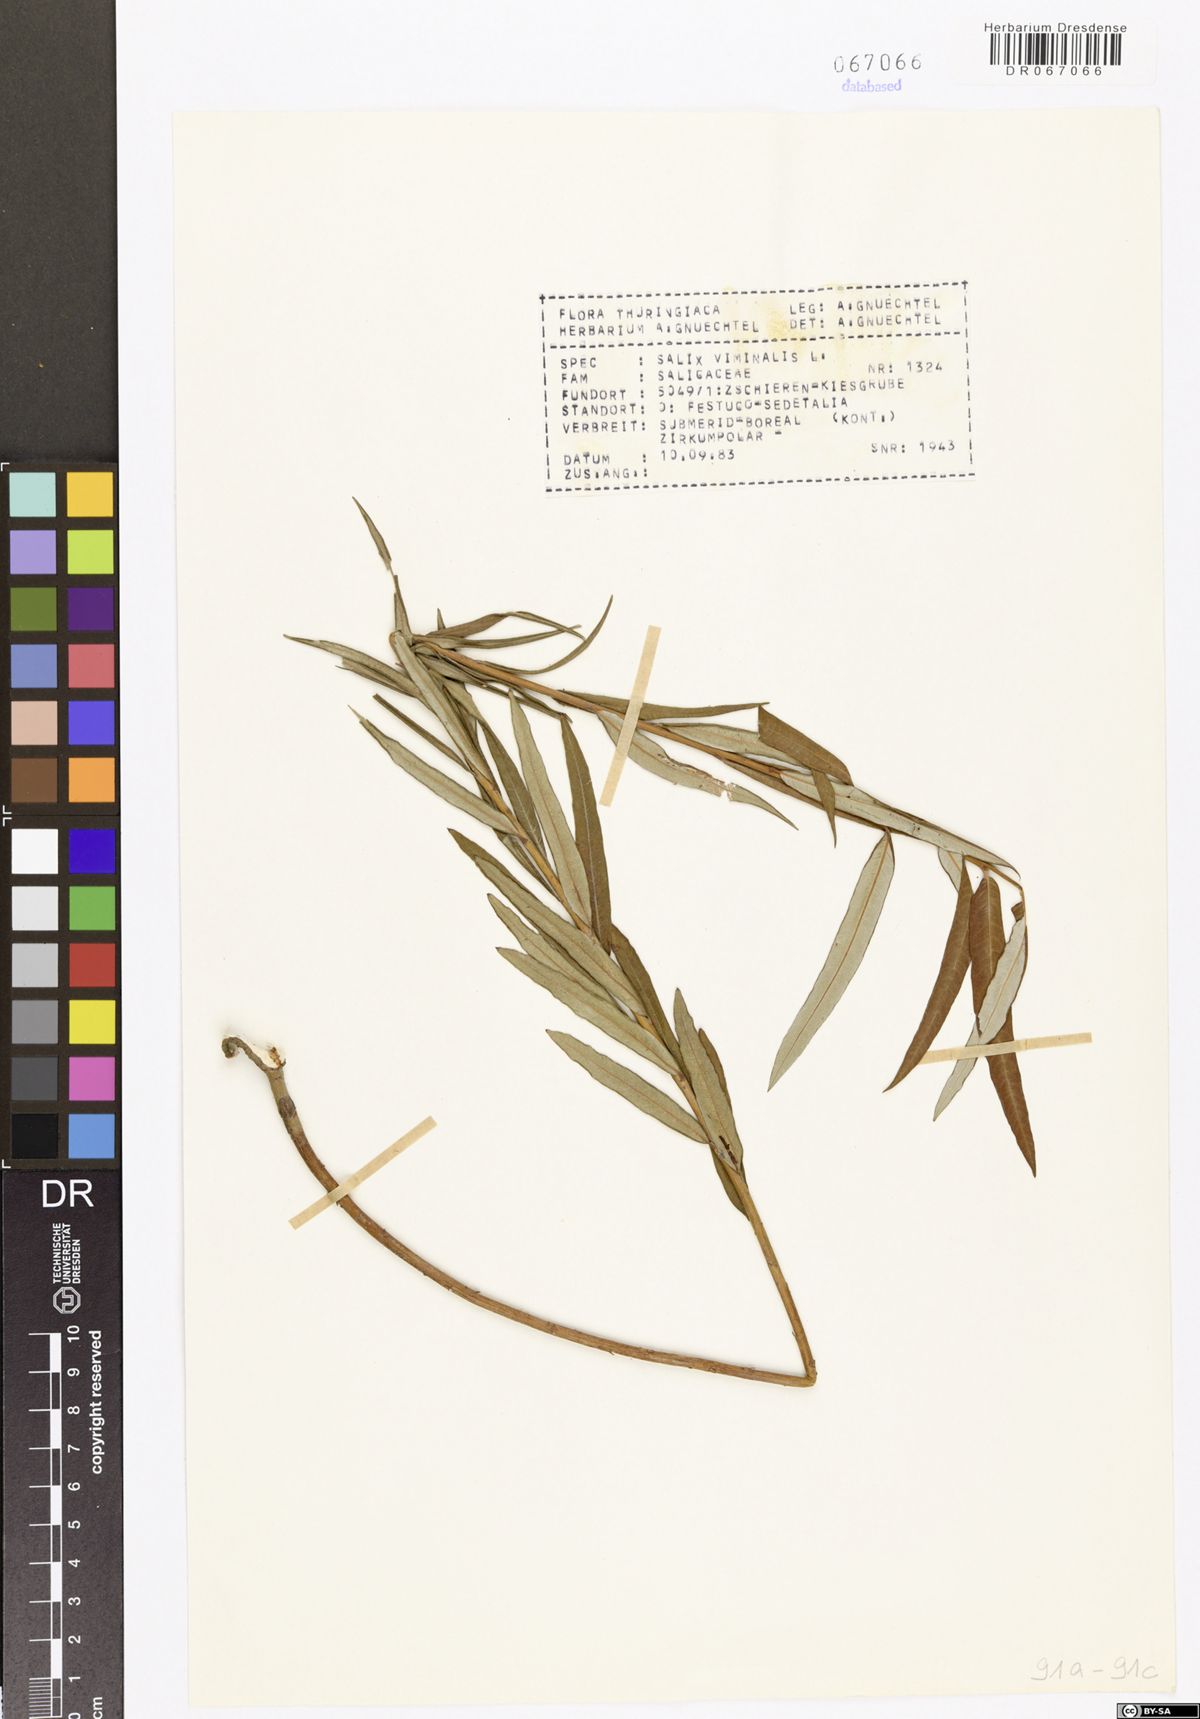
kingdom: Plantae
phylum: Tracheophyta
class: Magnoliopsida
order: Malpighiales
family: Salicaceae
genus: Salix
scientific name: Salix viminalis
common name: Osier
